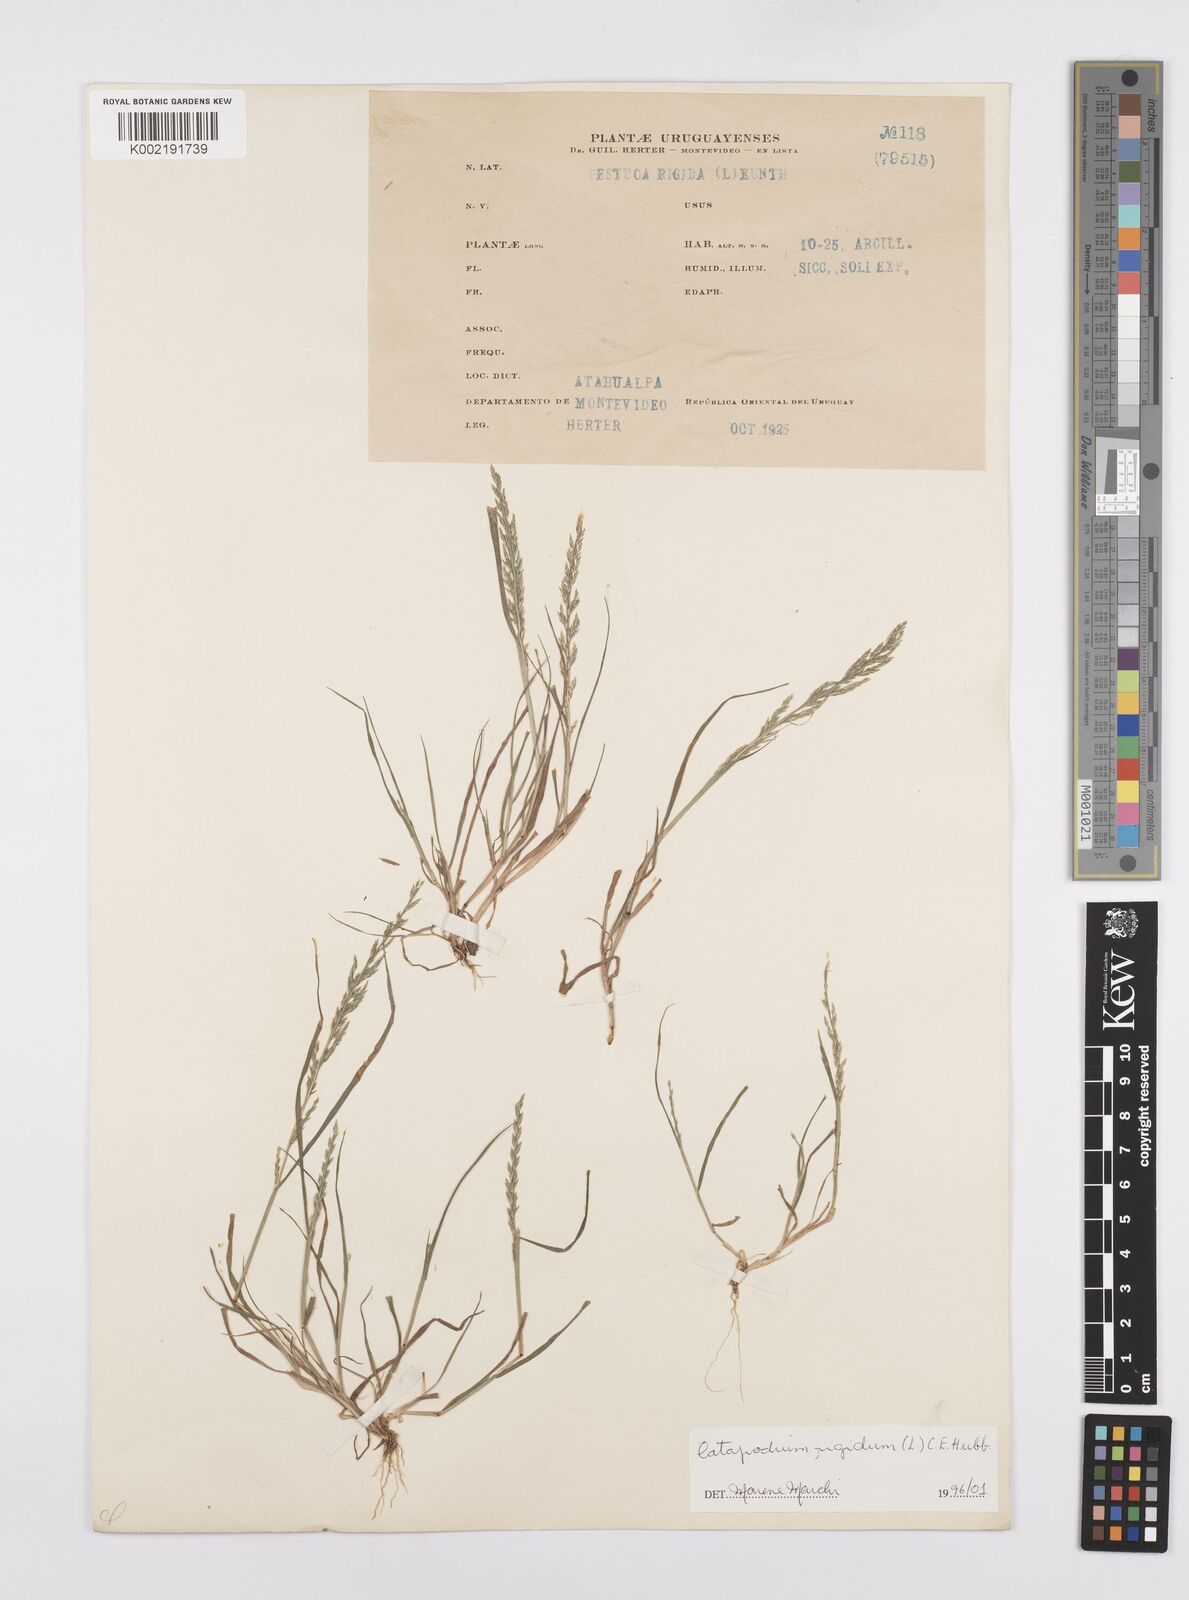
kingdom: Plantae
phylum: Tracheophyta
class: Liliopsida
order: Poales
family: Poaceae
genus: Catapodium
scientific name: Catapodium rigidum
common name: Fern-grass
